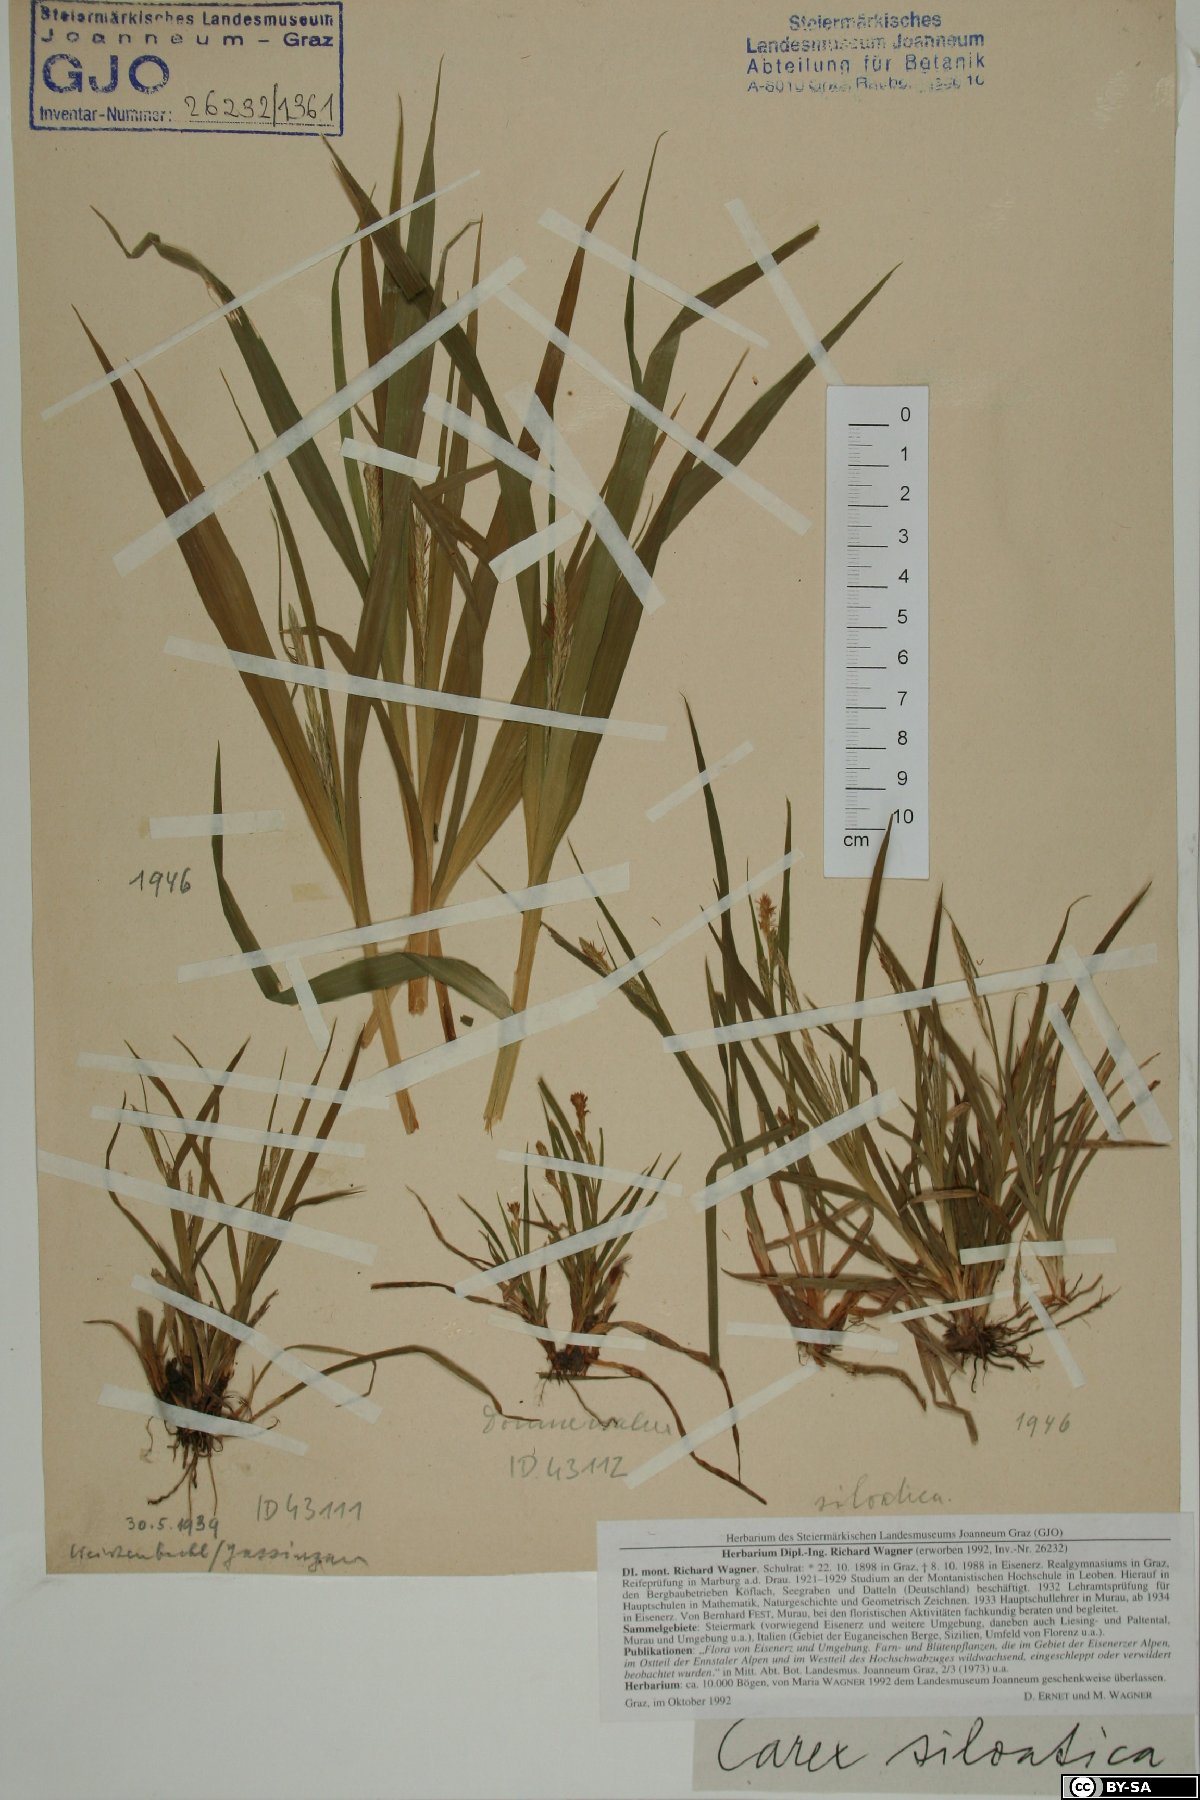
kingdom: Plantae
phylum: Tracheophyta
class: Liliopsida
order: Poales
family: Cyperaceae
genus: Carex
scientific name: Carex sylvatica
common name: Wood-sedge
